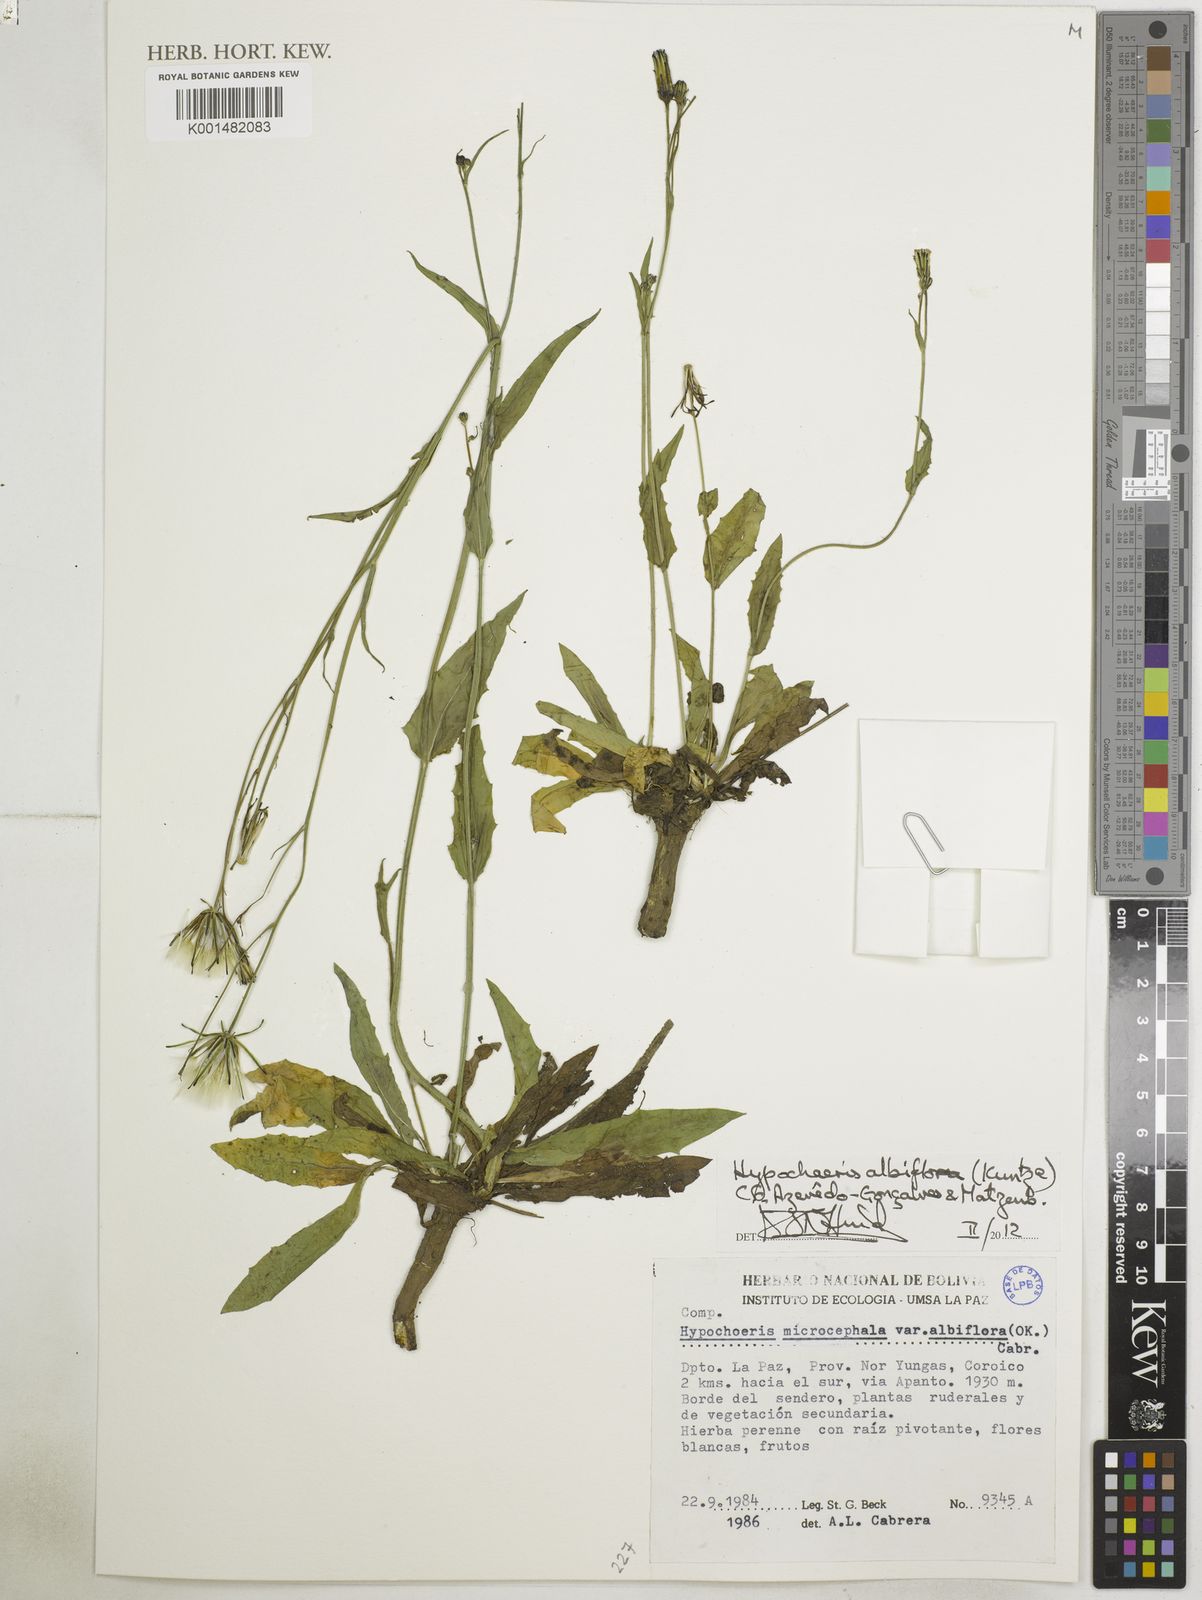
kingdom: Plantae
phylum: Tracheophyta
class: Magnoliopsida
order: Asterales
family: Asteraceae
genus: Hypochaeris
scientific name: Hypochaeris albiflora
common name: White flatweed
